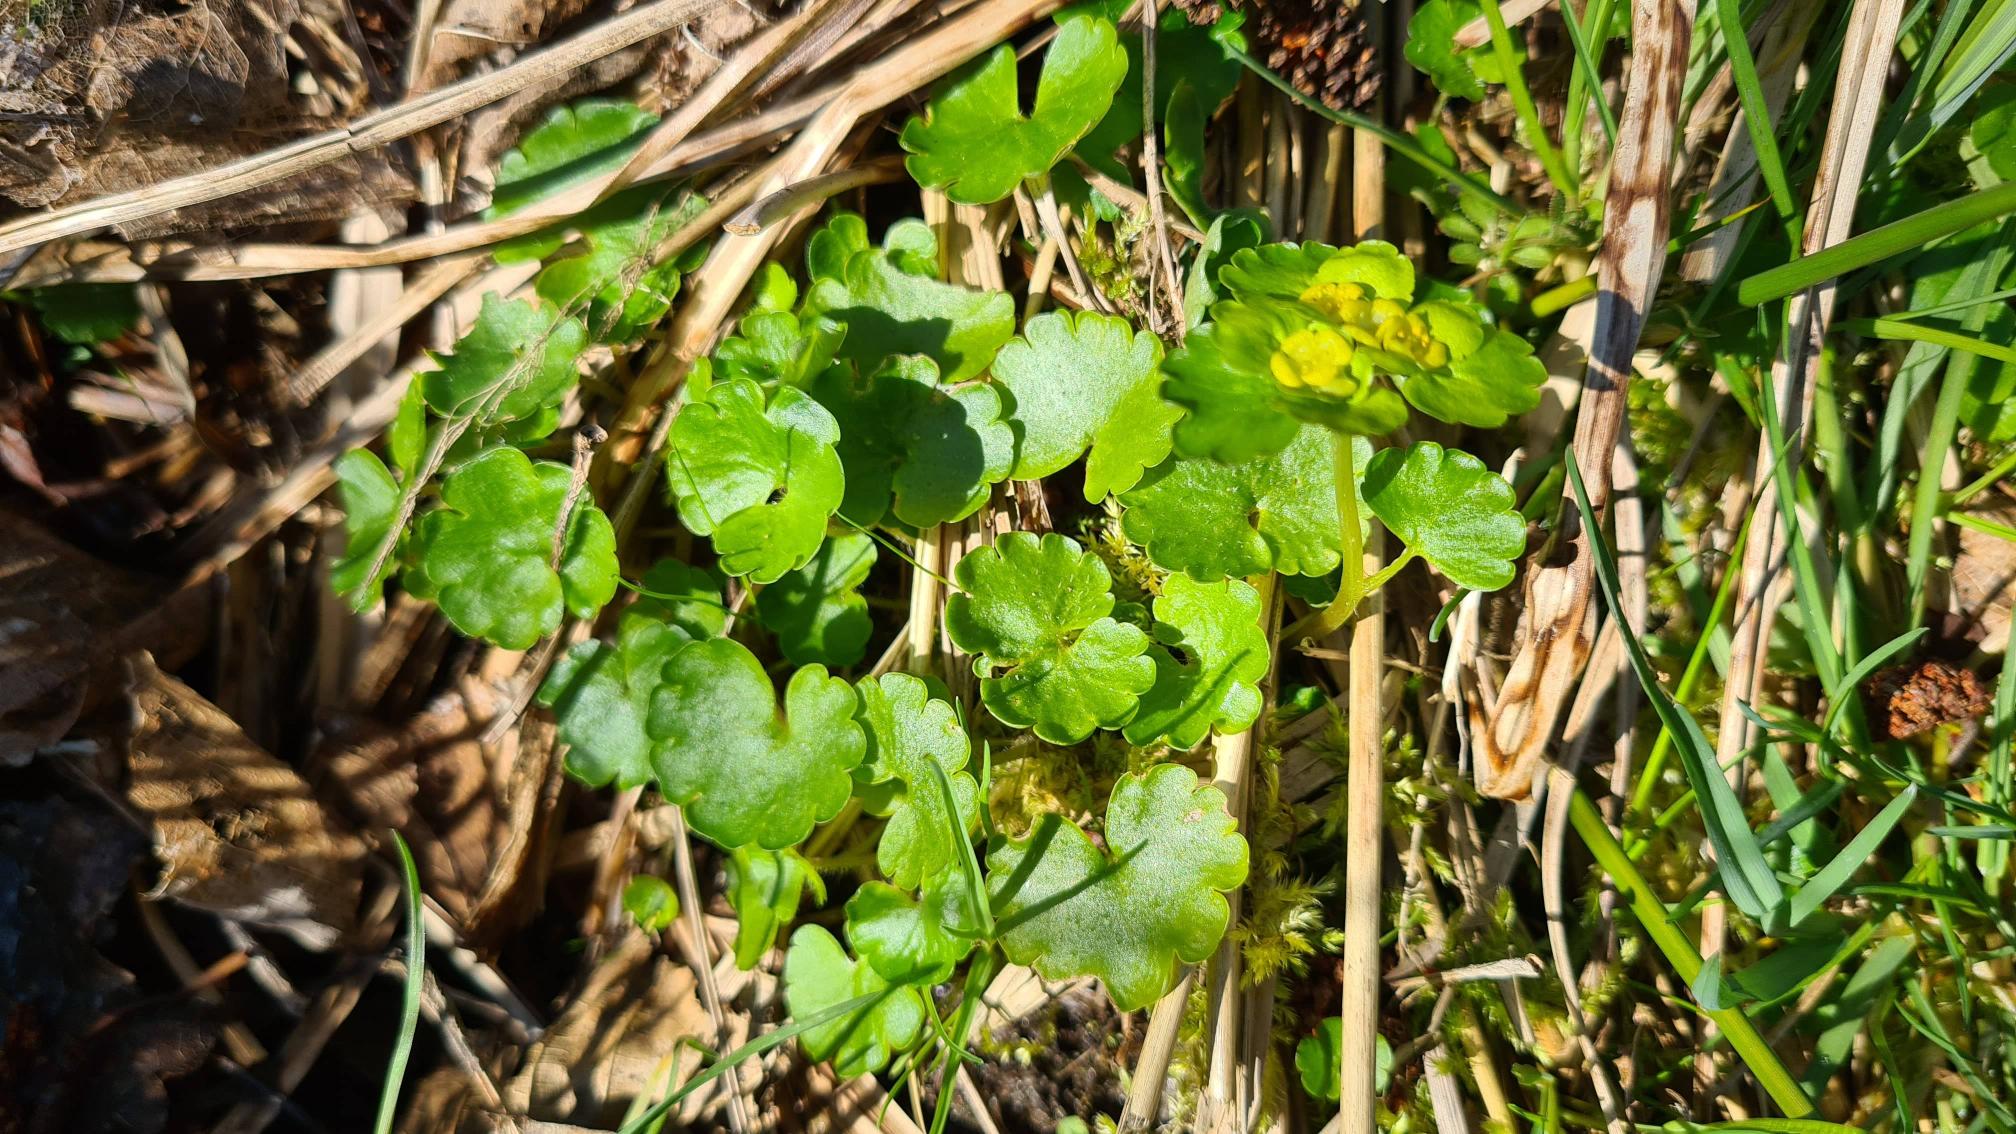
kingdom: Plantae
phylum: Tracheophyta
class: Magnoliopsida
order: Saxifragales
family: Saxifragaceae
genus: Chrysosplenium
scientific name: Chrysosplenium alternifolium
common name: Almindelig milturt
